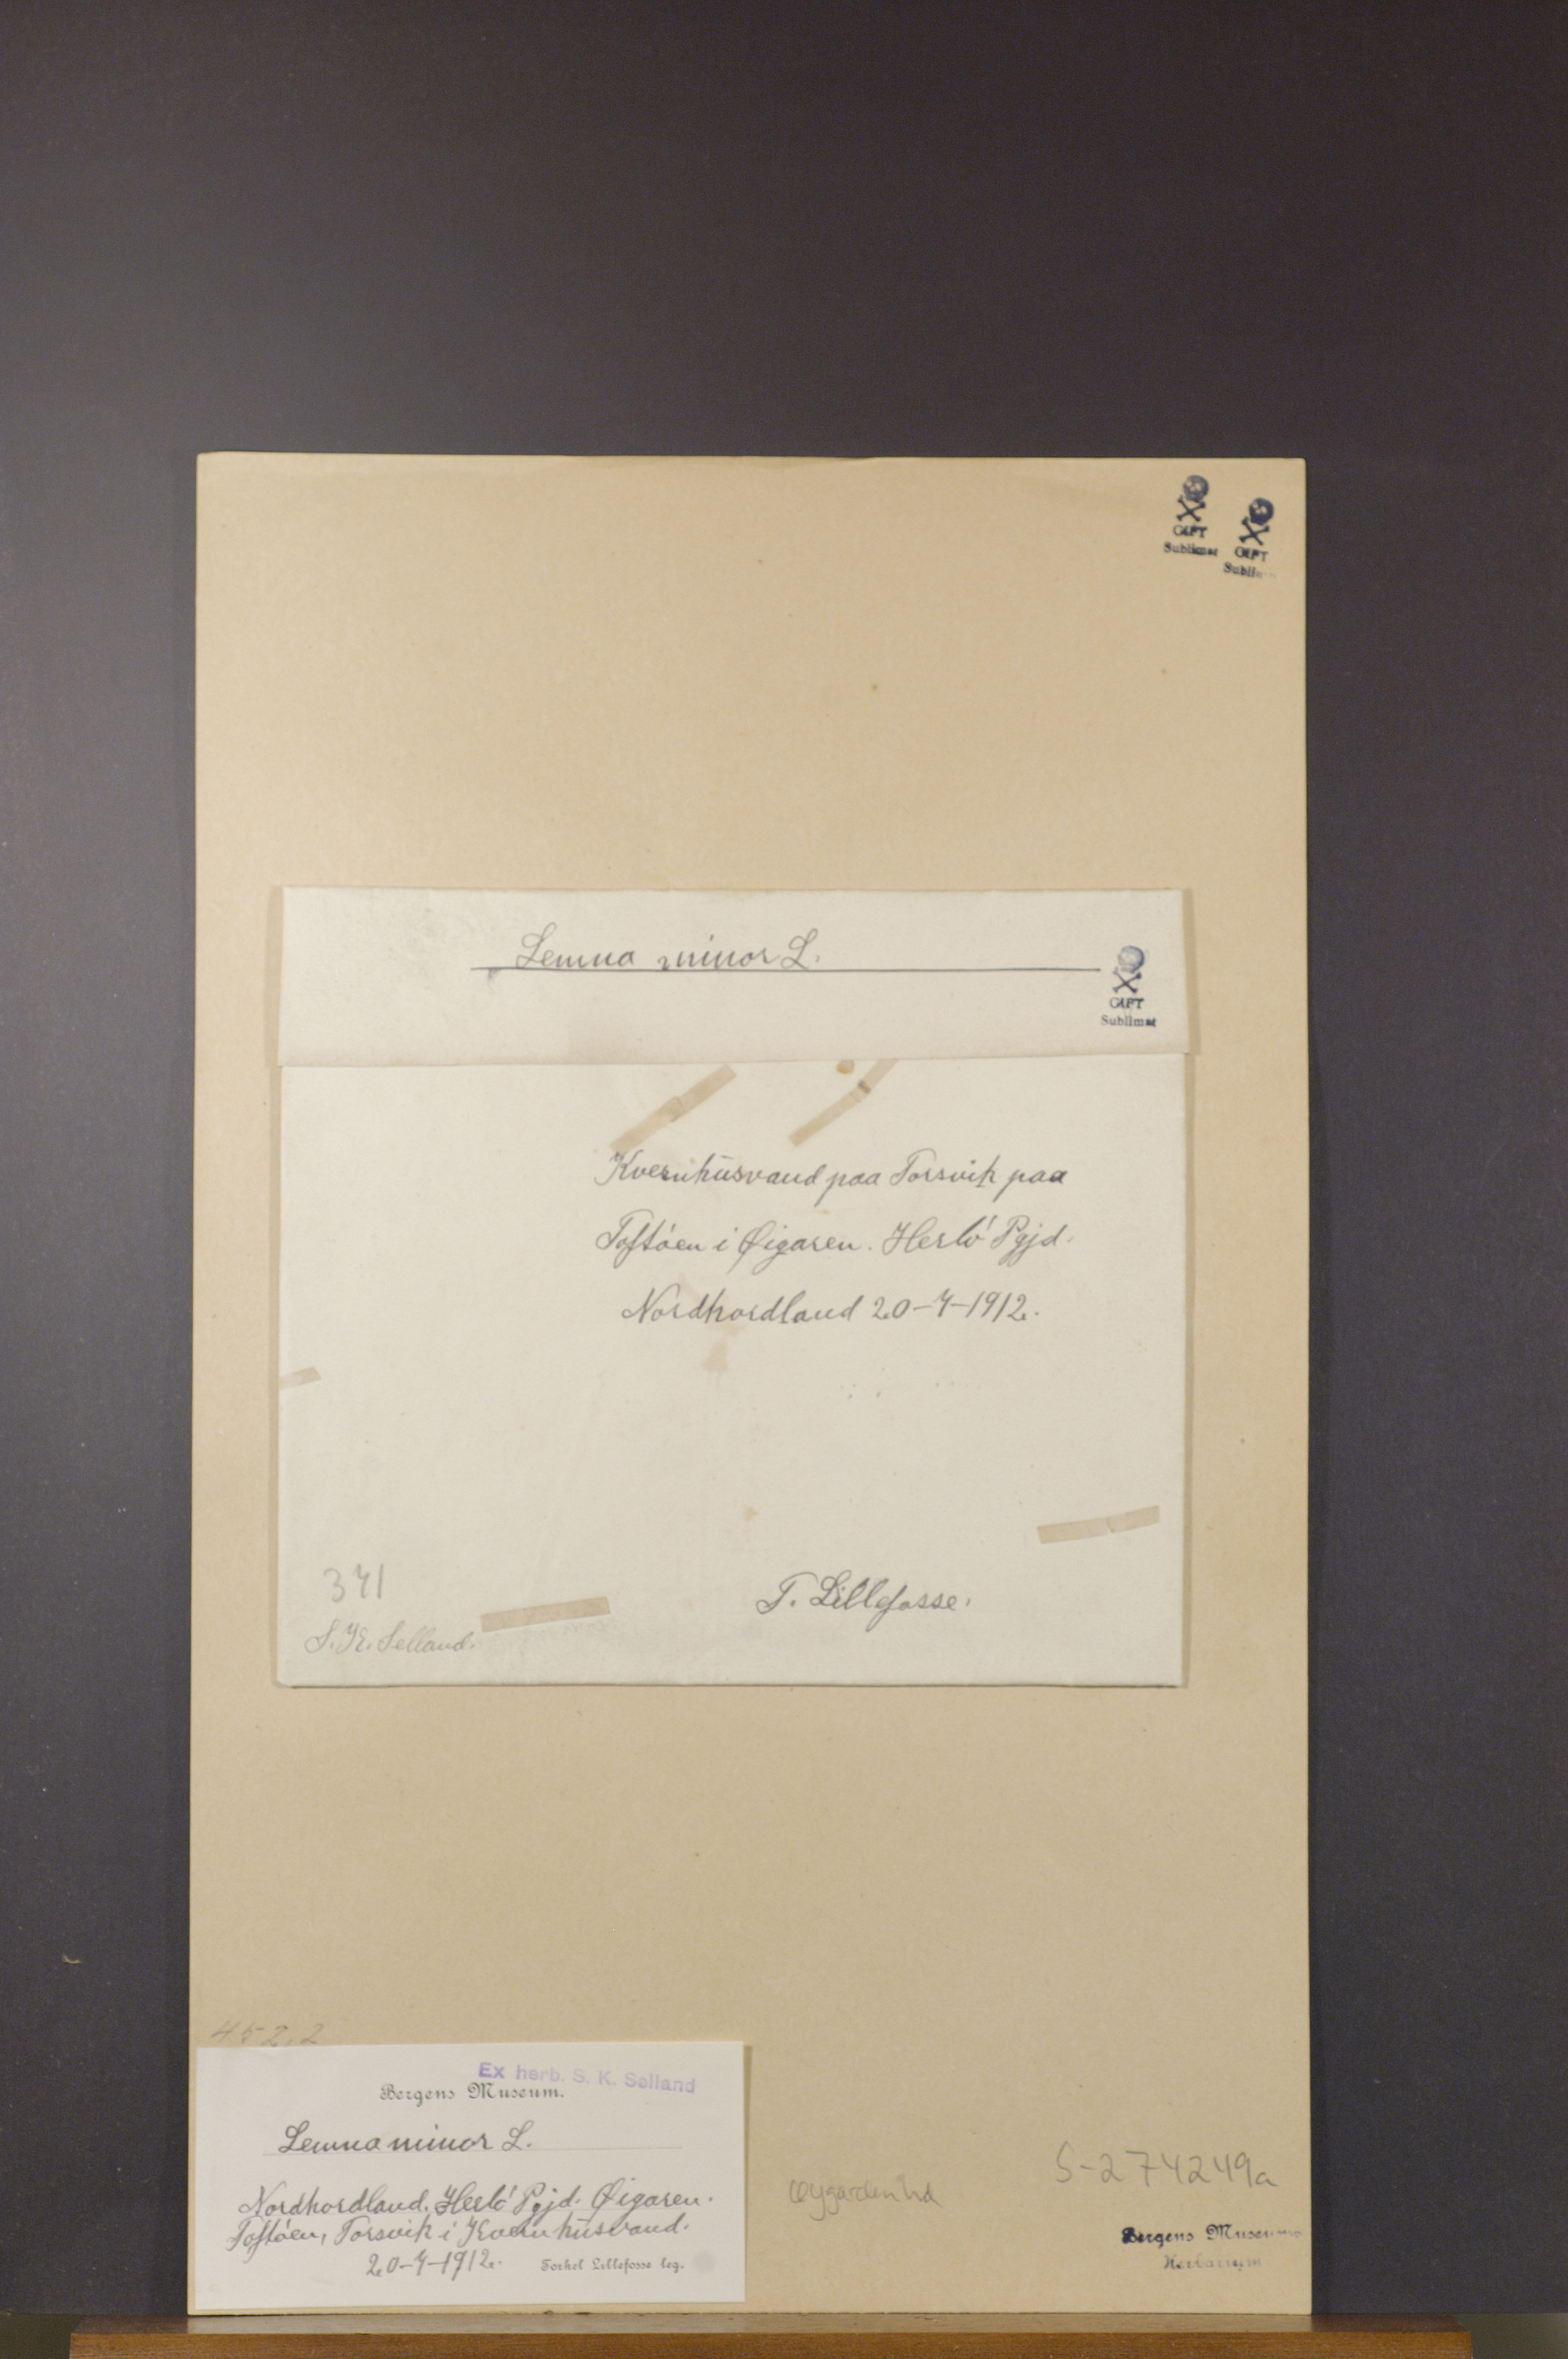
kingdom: Plantae
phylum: Tracheophyta
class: Liliopsida
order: Alismatales
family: Araceae
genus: Lemna
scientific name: Lemna minor
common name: Common duckweed
